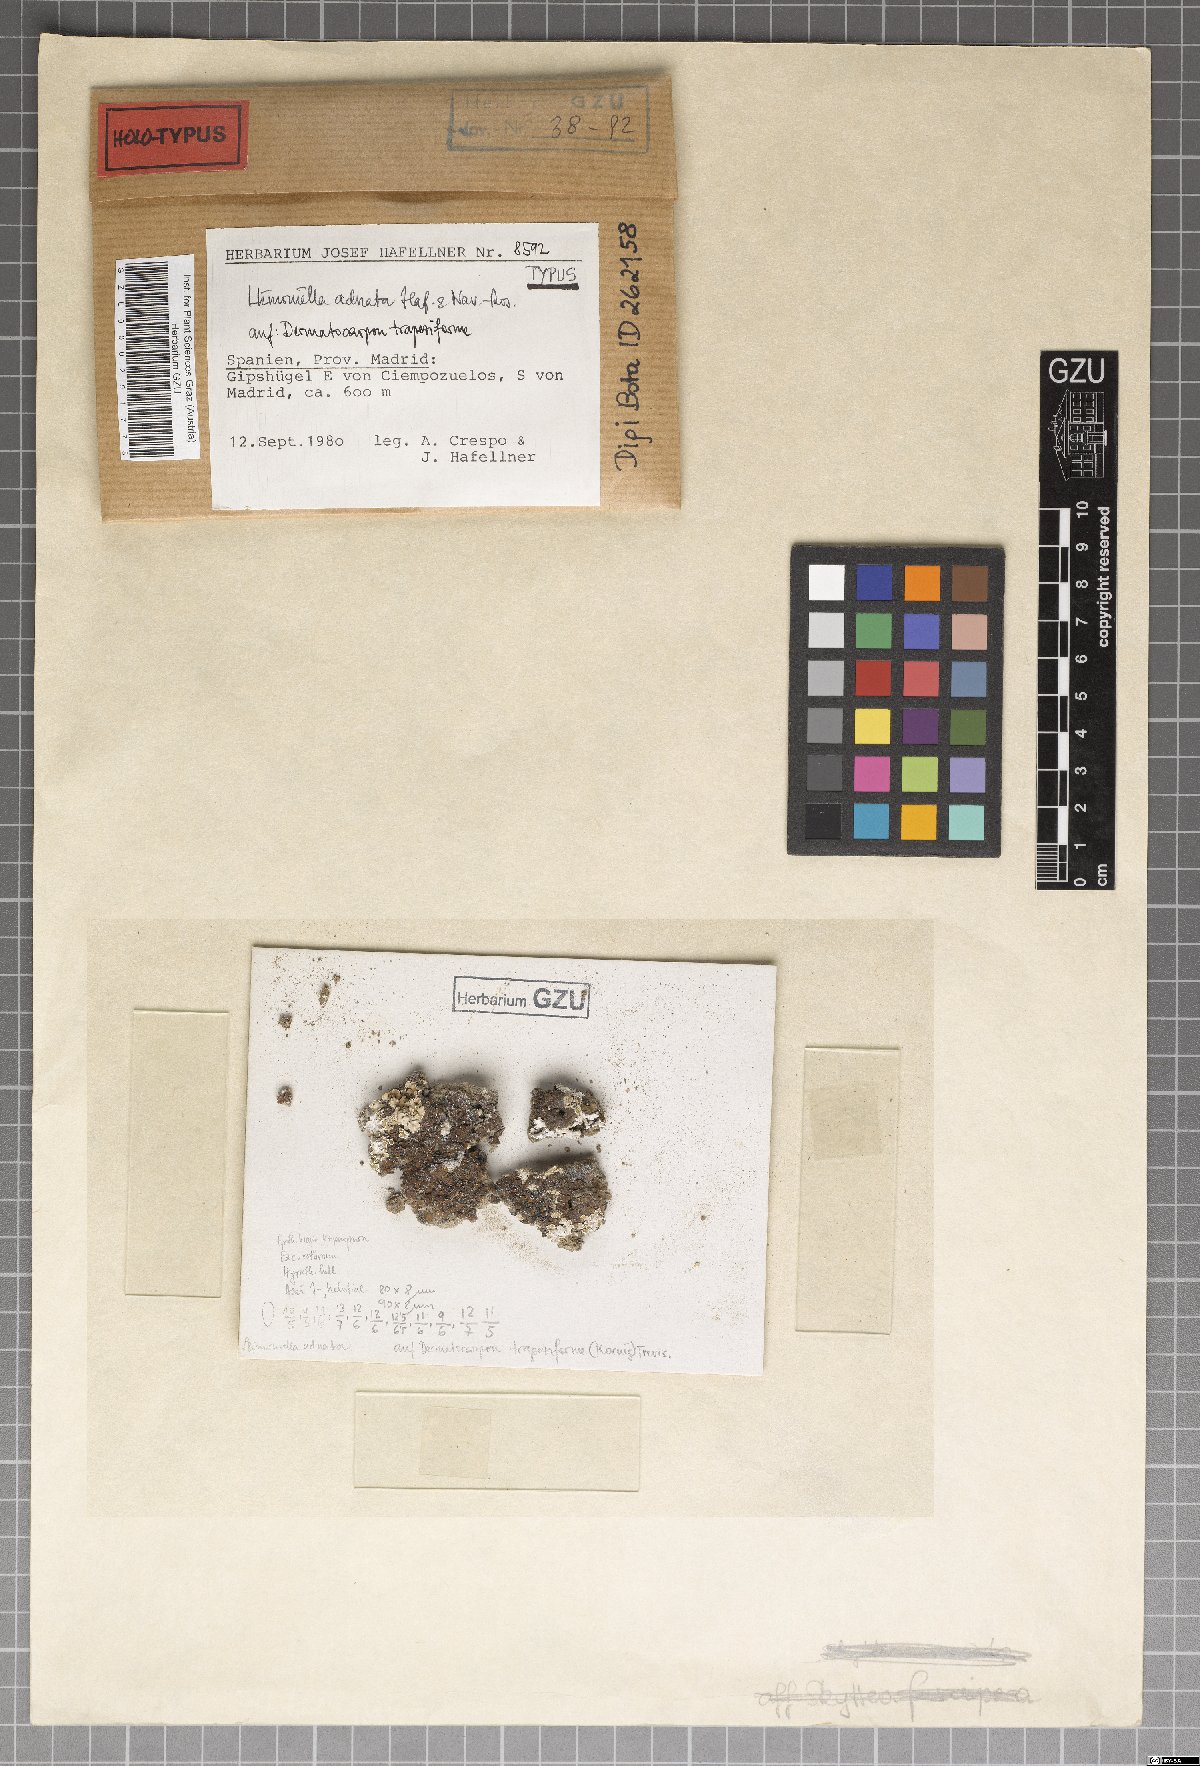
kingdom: Fungi
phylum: Ascomycota
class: Leotiomycetes
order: Helotiales
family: Cordieritidaceae
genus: Llimoniella
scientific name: Llimoniella adnata
